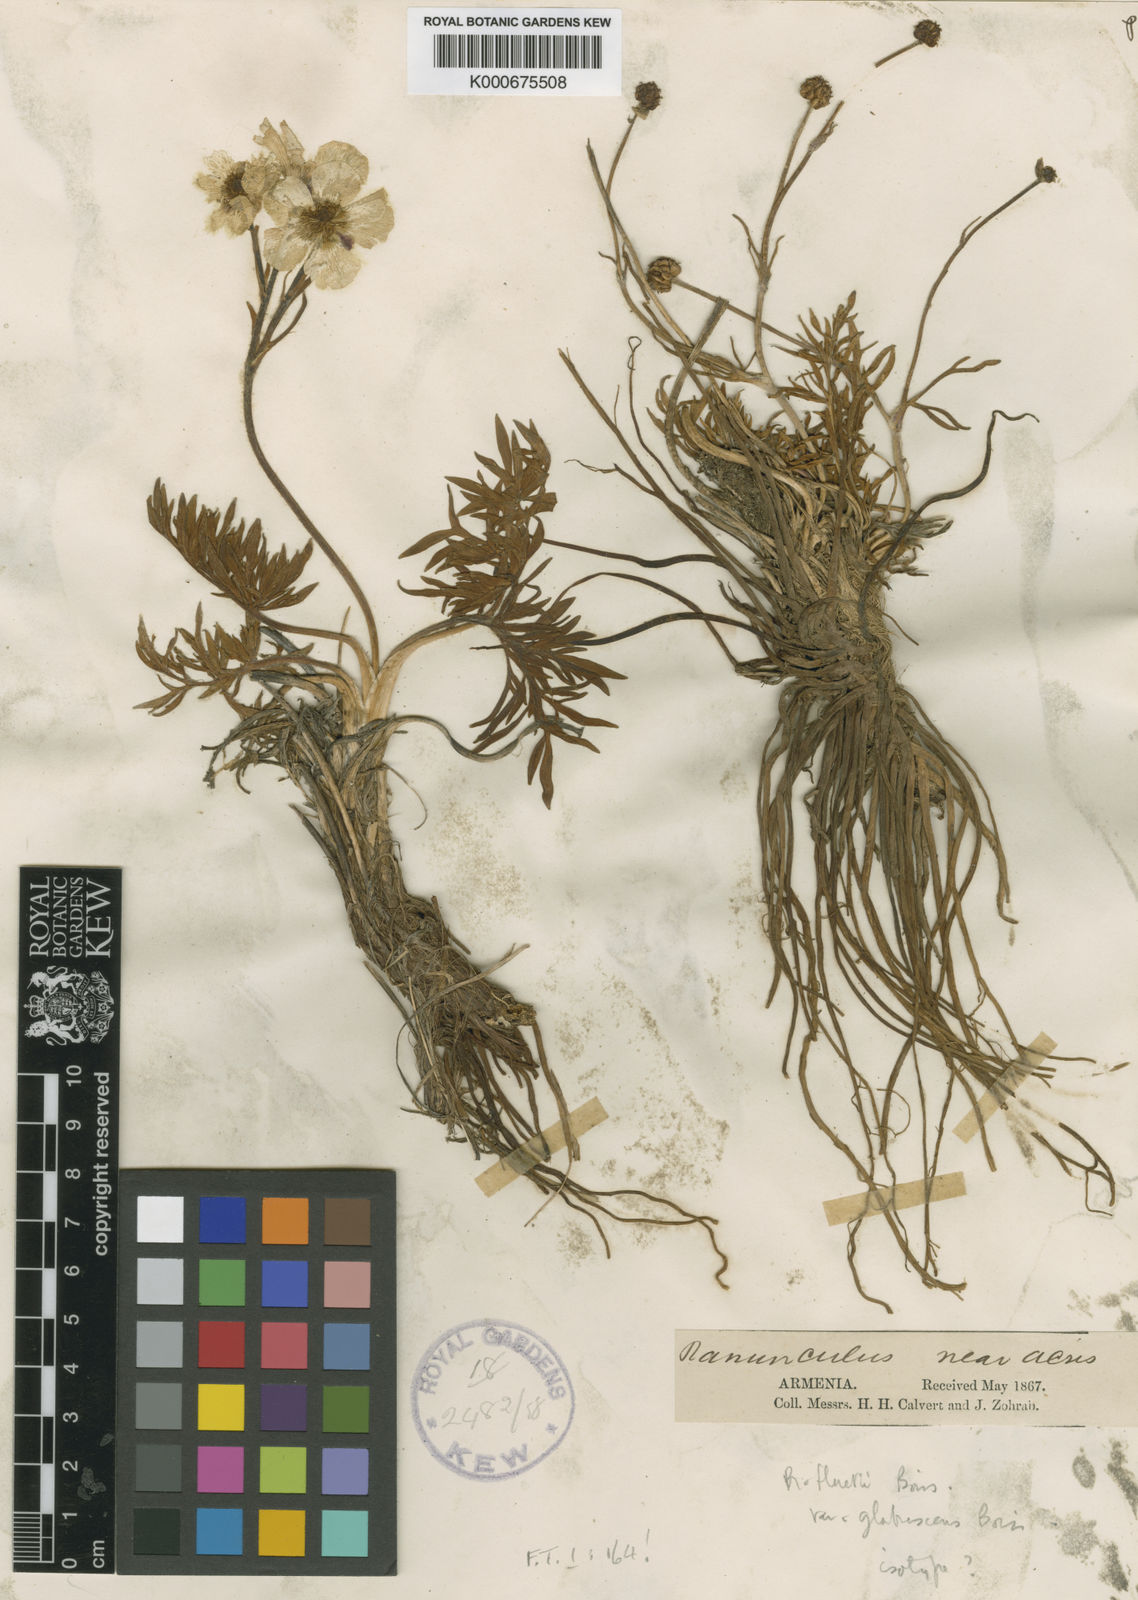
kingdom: Plantae
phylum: Tracheophyta
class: Magnoliopsida
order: Ranunculales
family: Ranunculaceae
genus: Ranunculus
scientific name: Ranunculus dissectus
